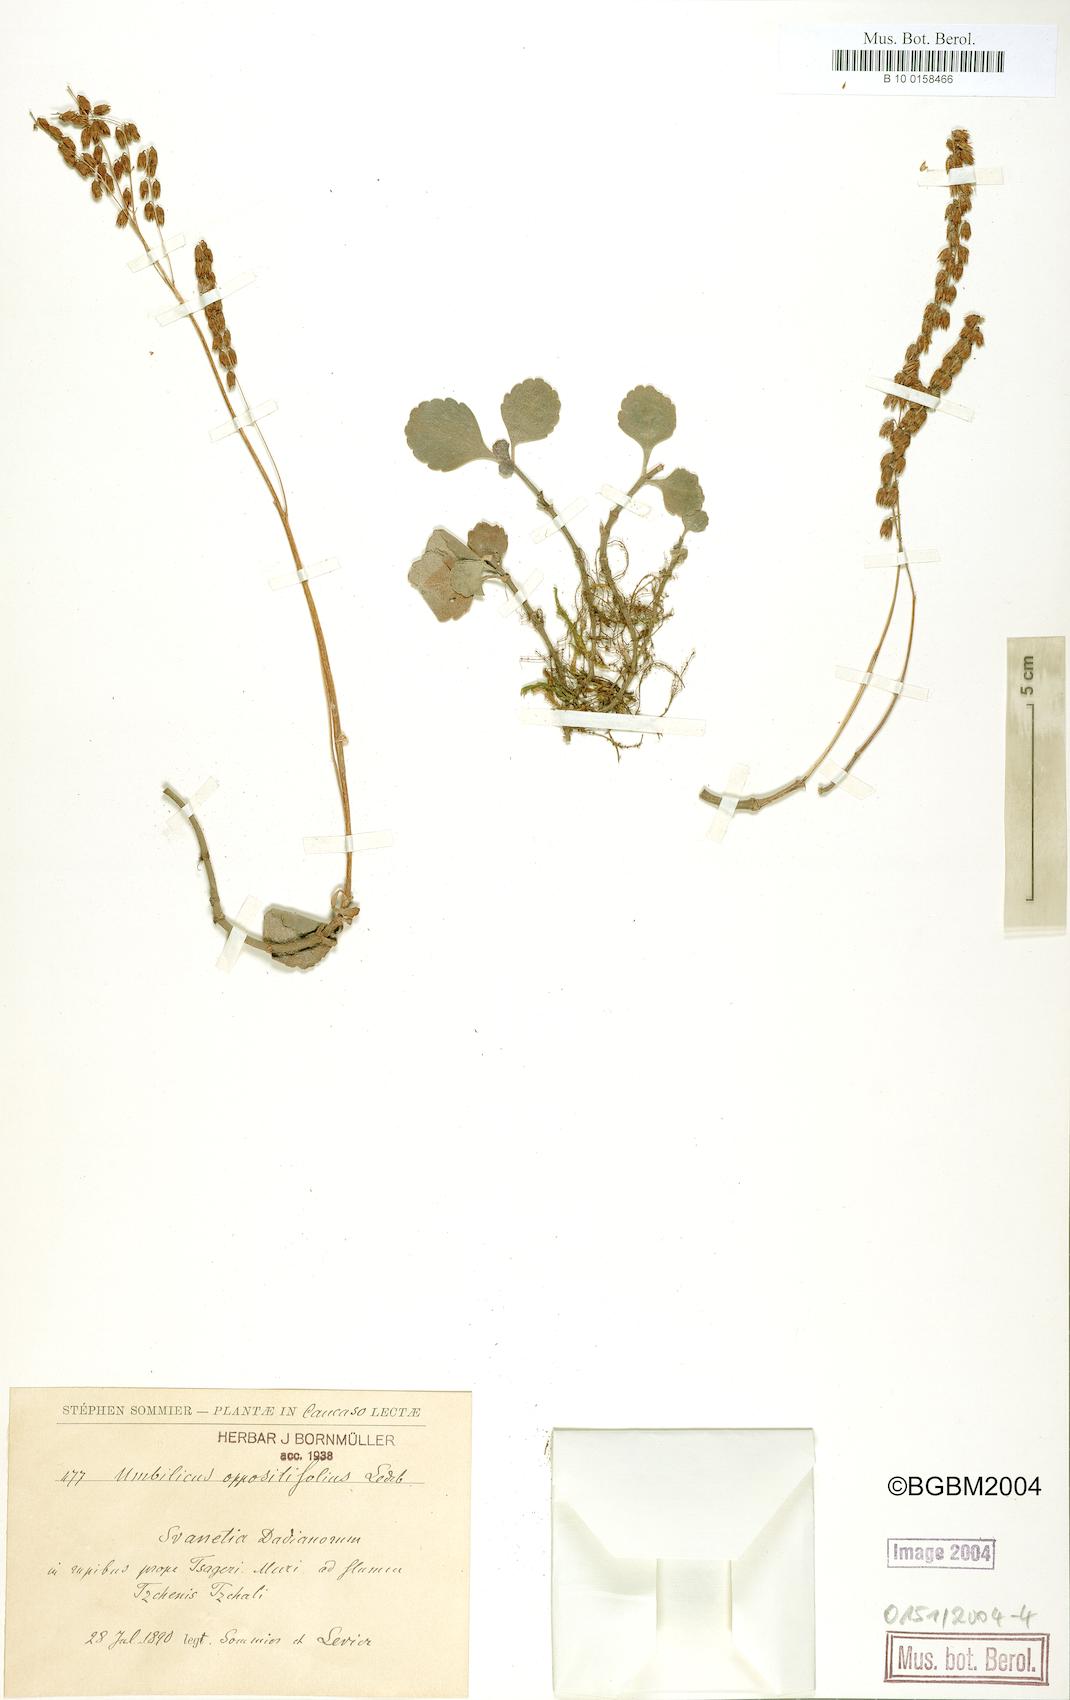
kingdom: Plantae
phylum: Tracheophyta
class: Magnoliopsida
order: Saxifragales
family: Crassulaceae
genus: Umbilicus
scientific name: Umbilicus oppositifolius
